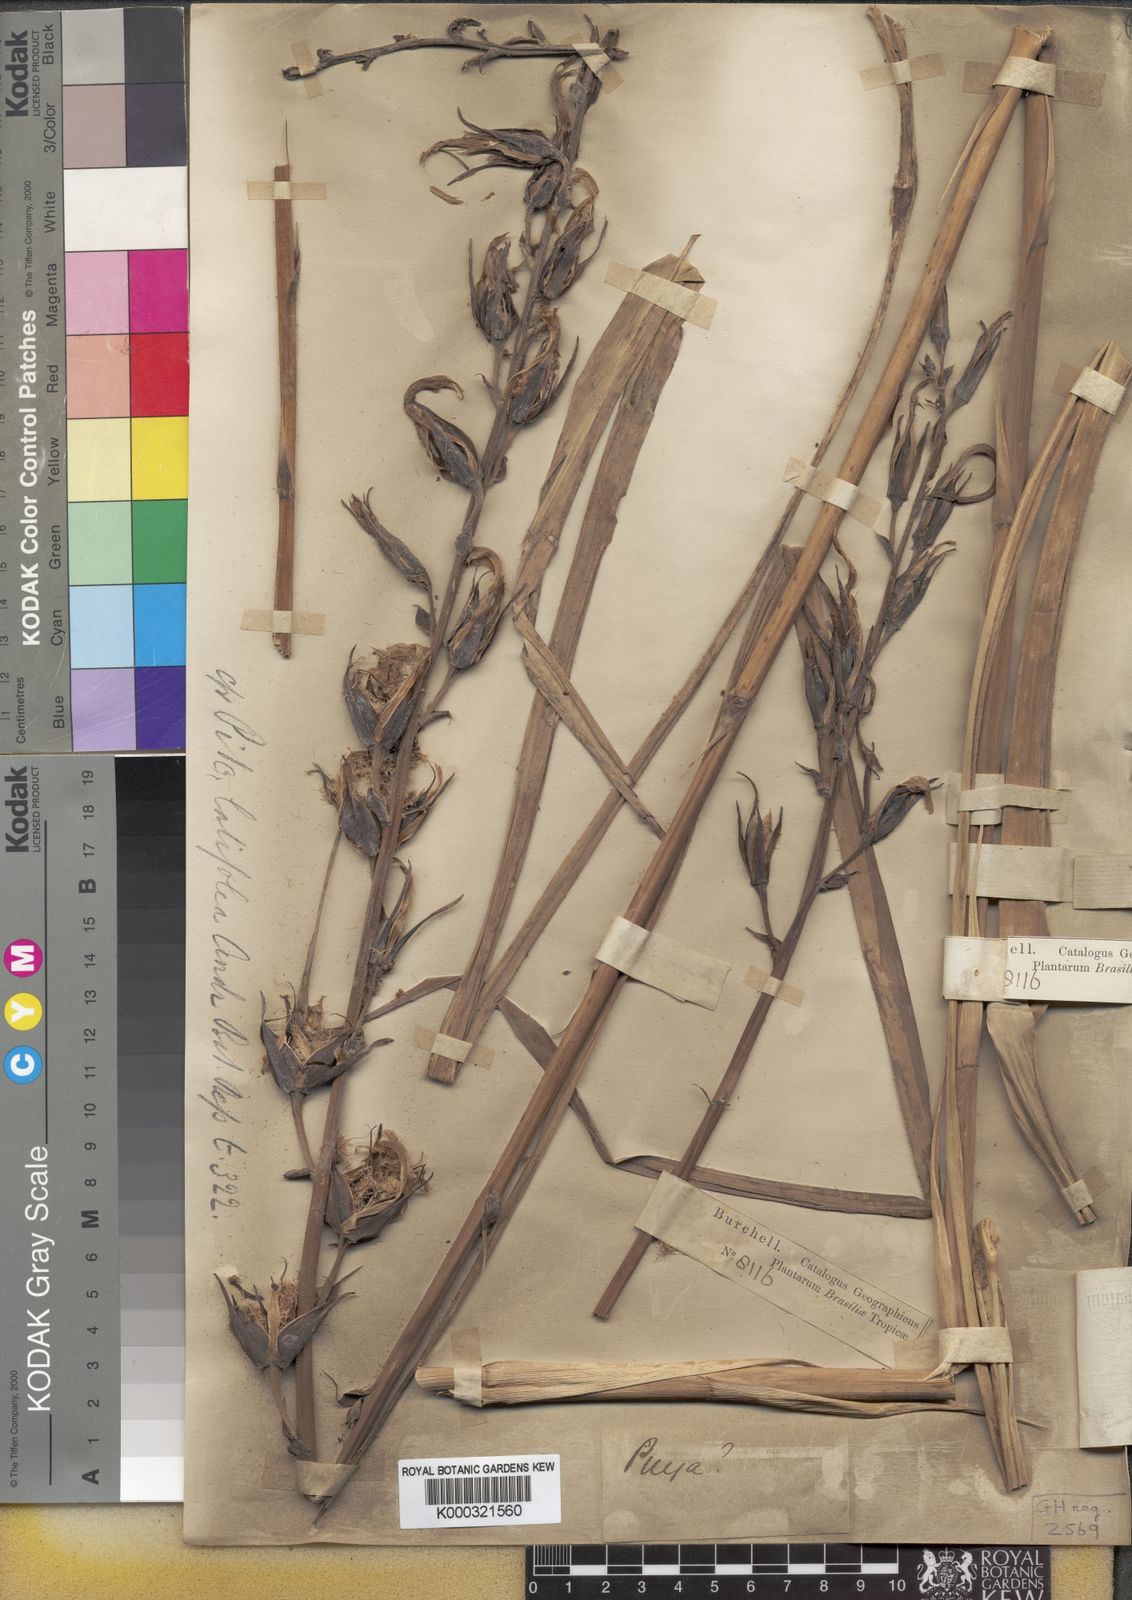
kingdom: Plantae
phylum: Tracheophyta
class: Liliopsida
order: Poales
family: Bromeliaceae
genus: Pitcairnia
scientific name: Pitcairnia lanuginosa
